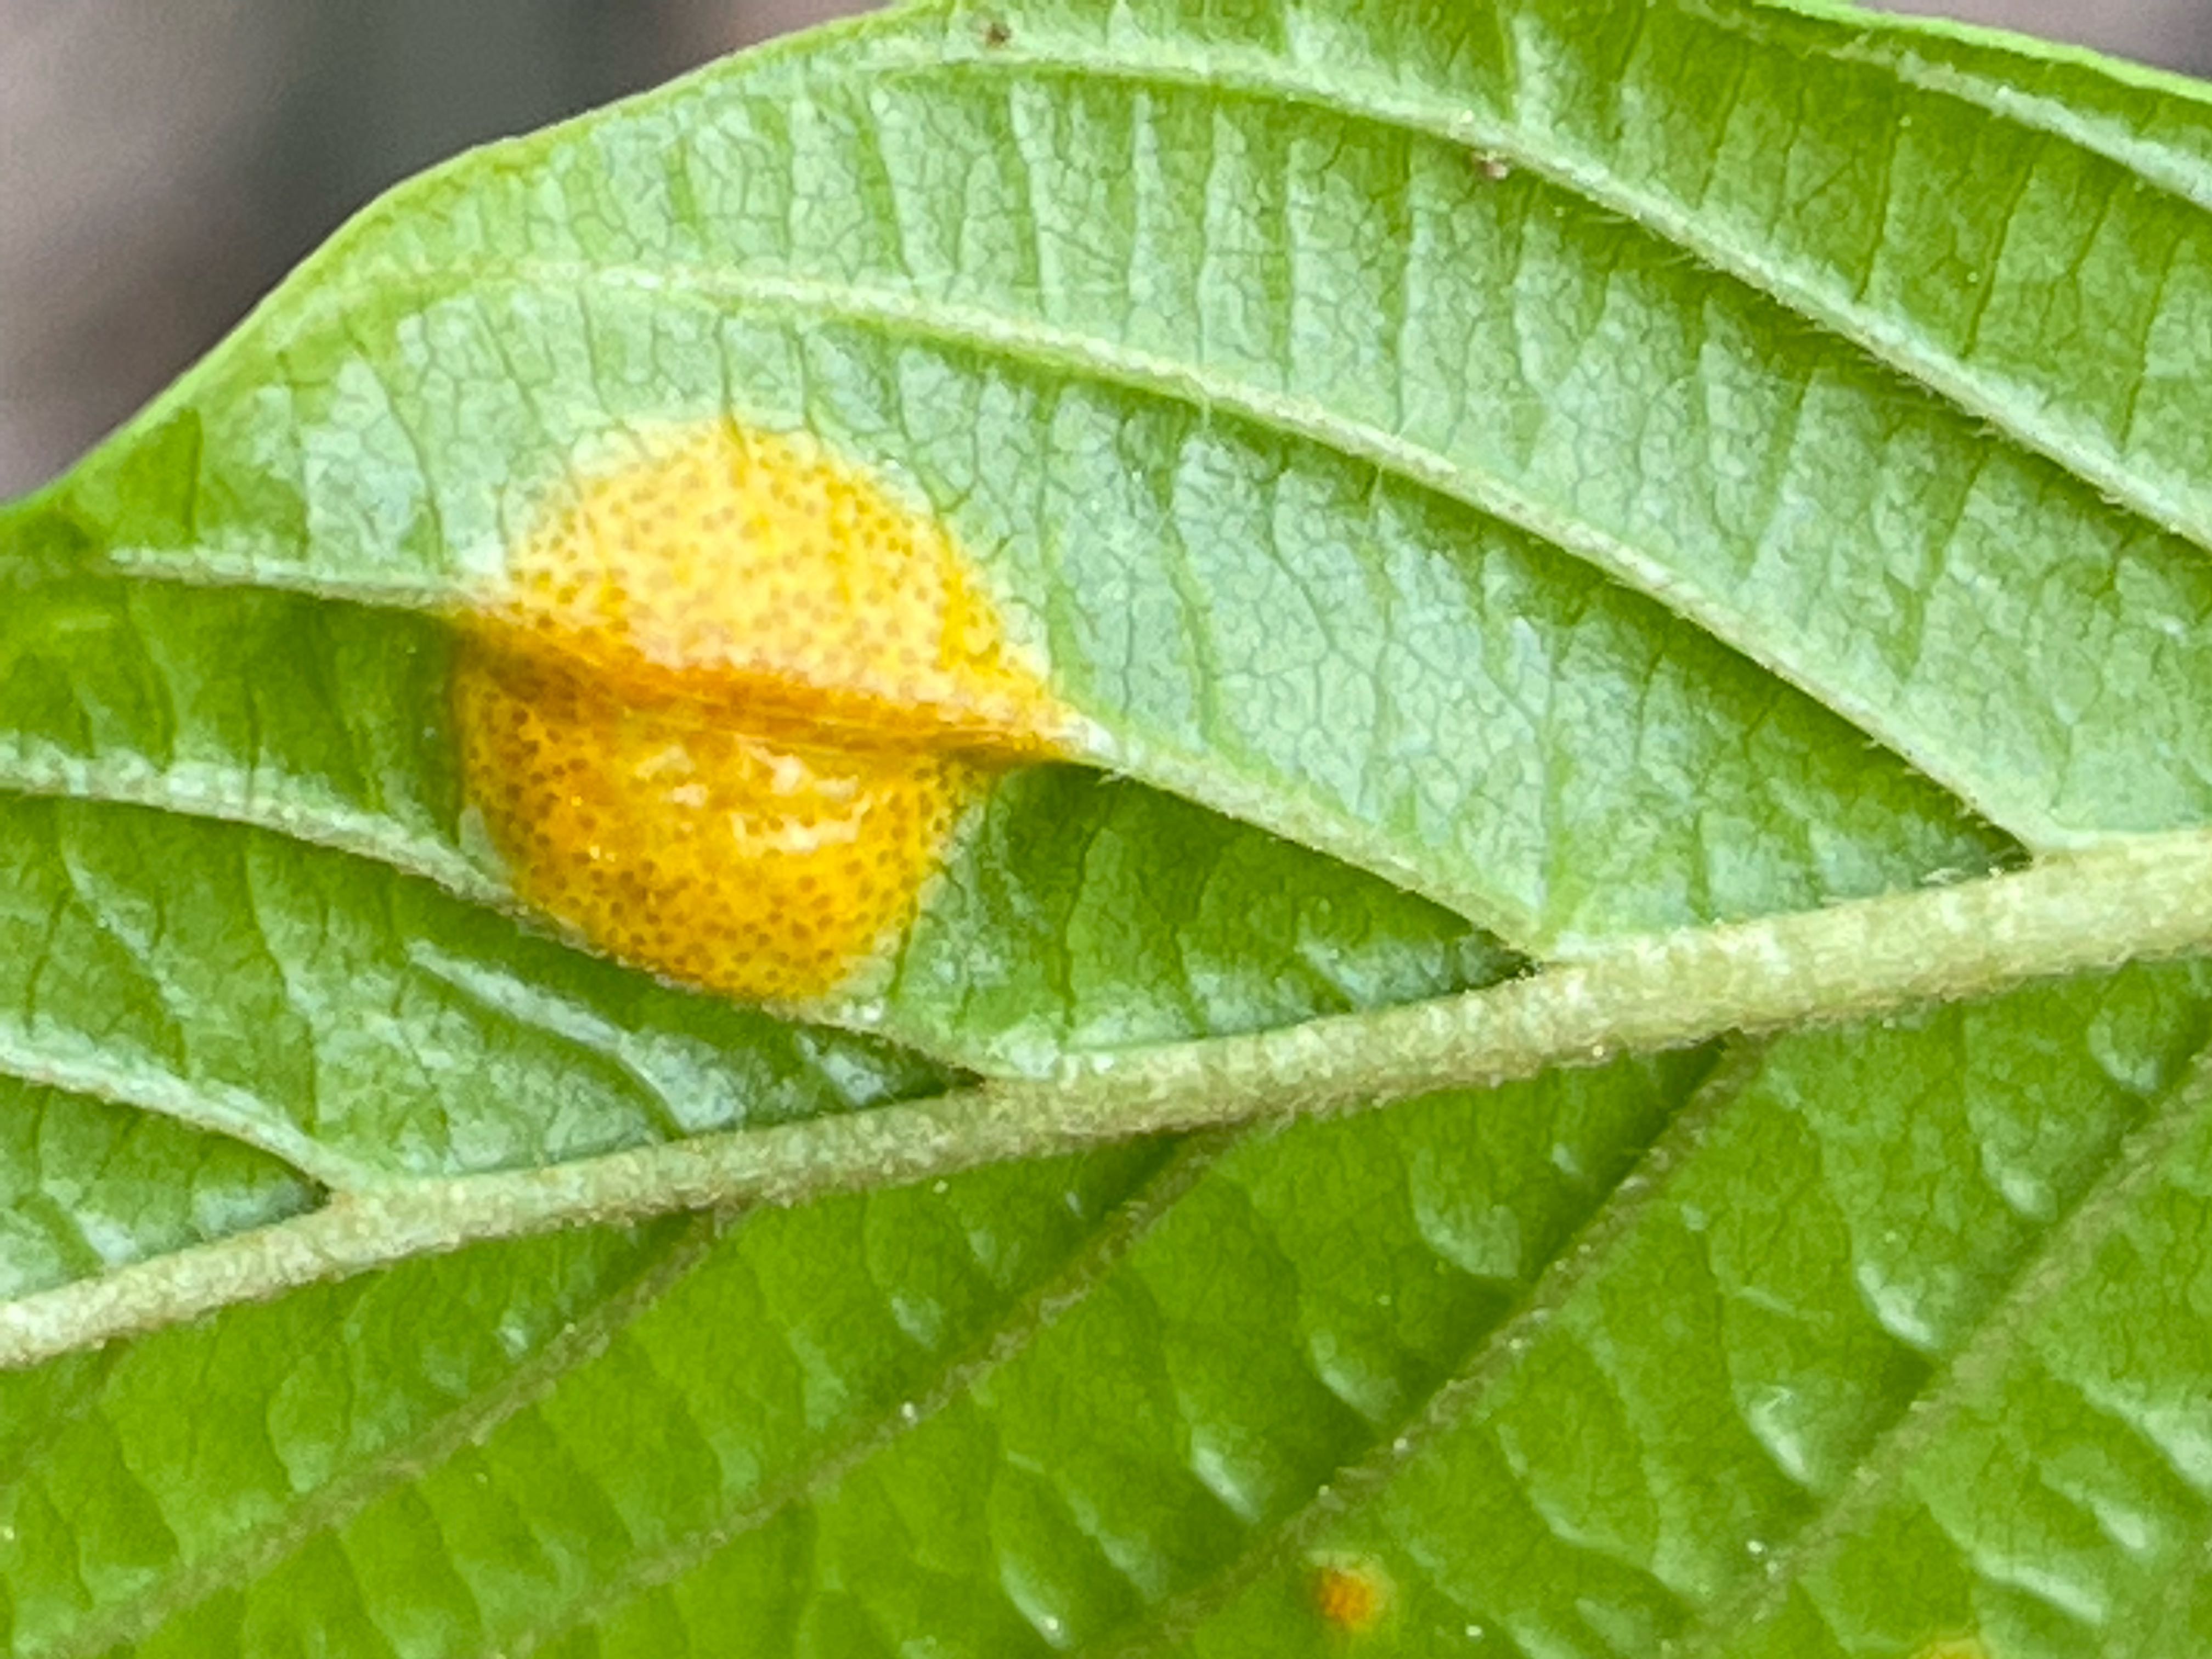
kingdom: Fungi
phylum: Basidiomycota
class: Pucciniomycetes
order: Pucciniales
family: Pucciniaceae
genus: Puccinia
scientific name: Puccinia coronata
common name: Crown rust
